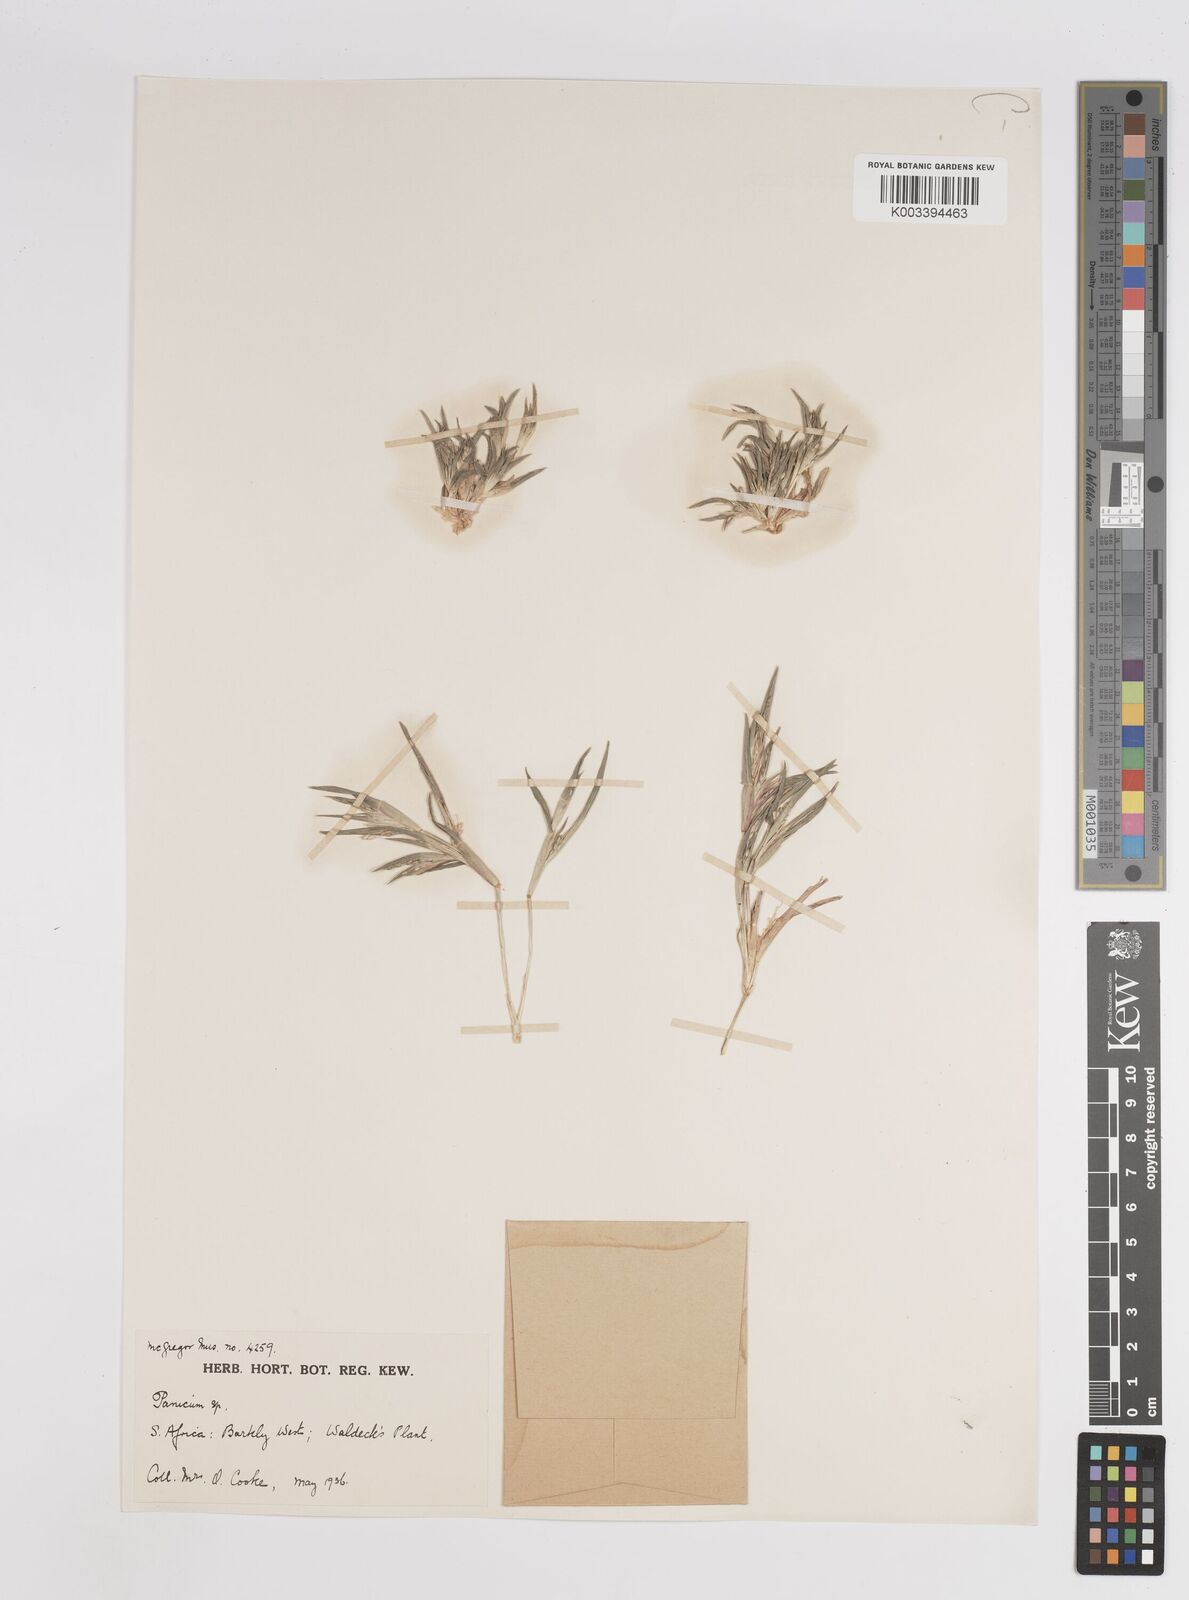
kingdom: Plantae
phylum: Tracheophyta
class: Liliopsida
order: Poales
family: Poaceae
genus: Panicum
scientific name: Panicum
